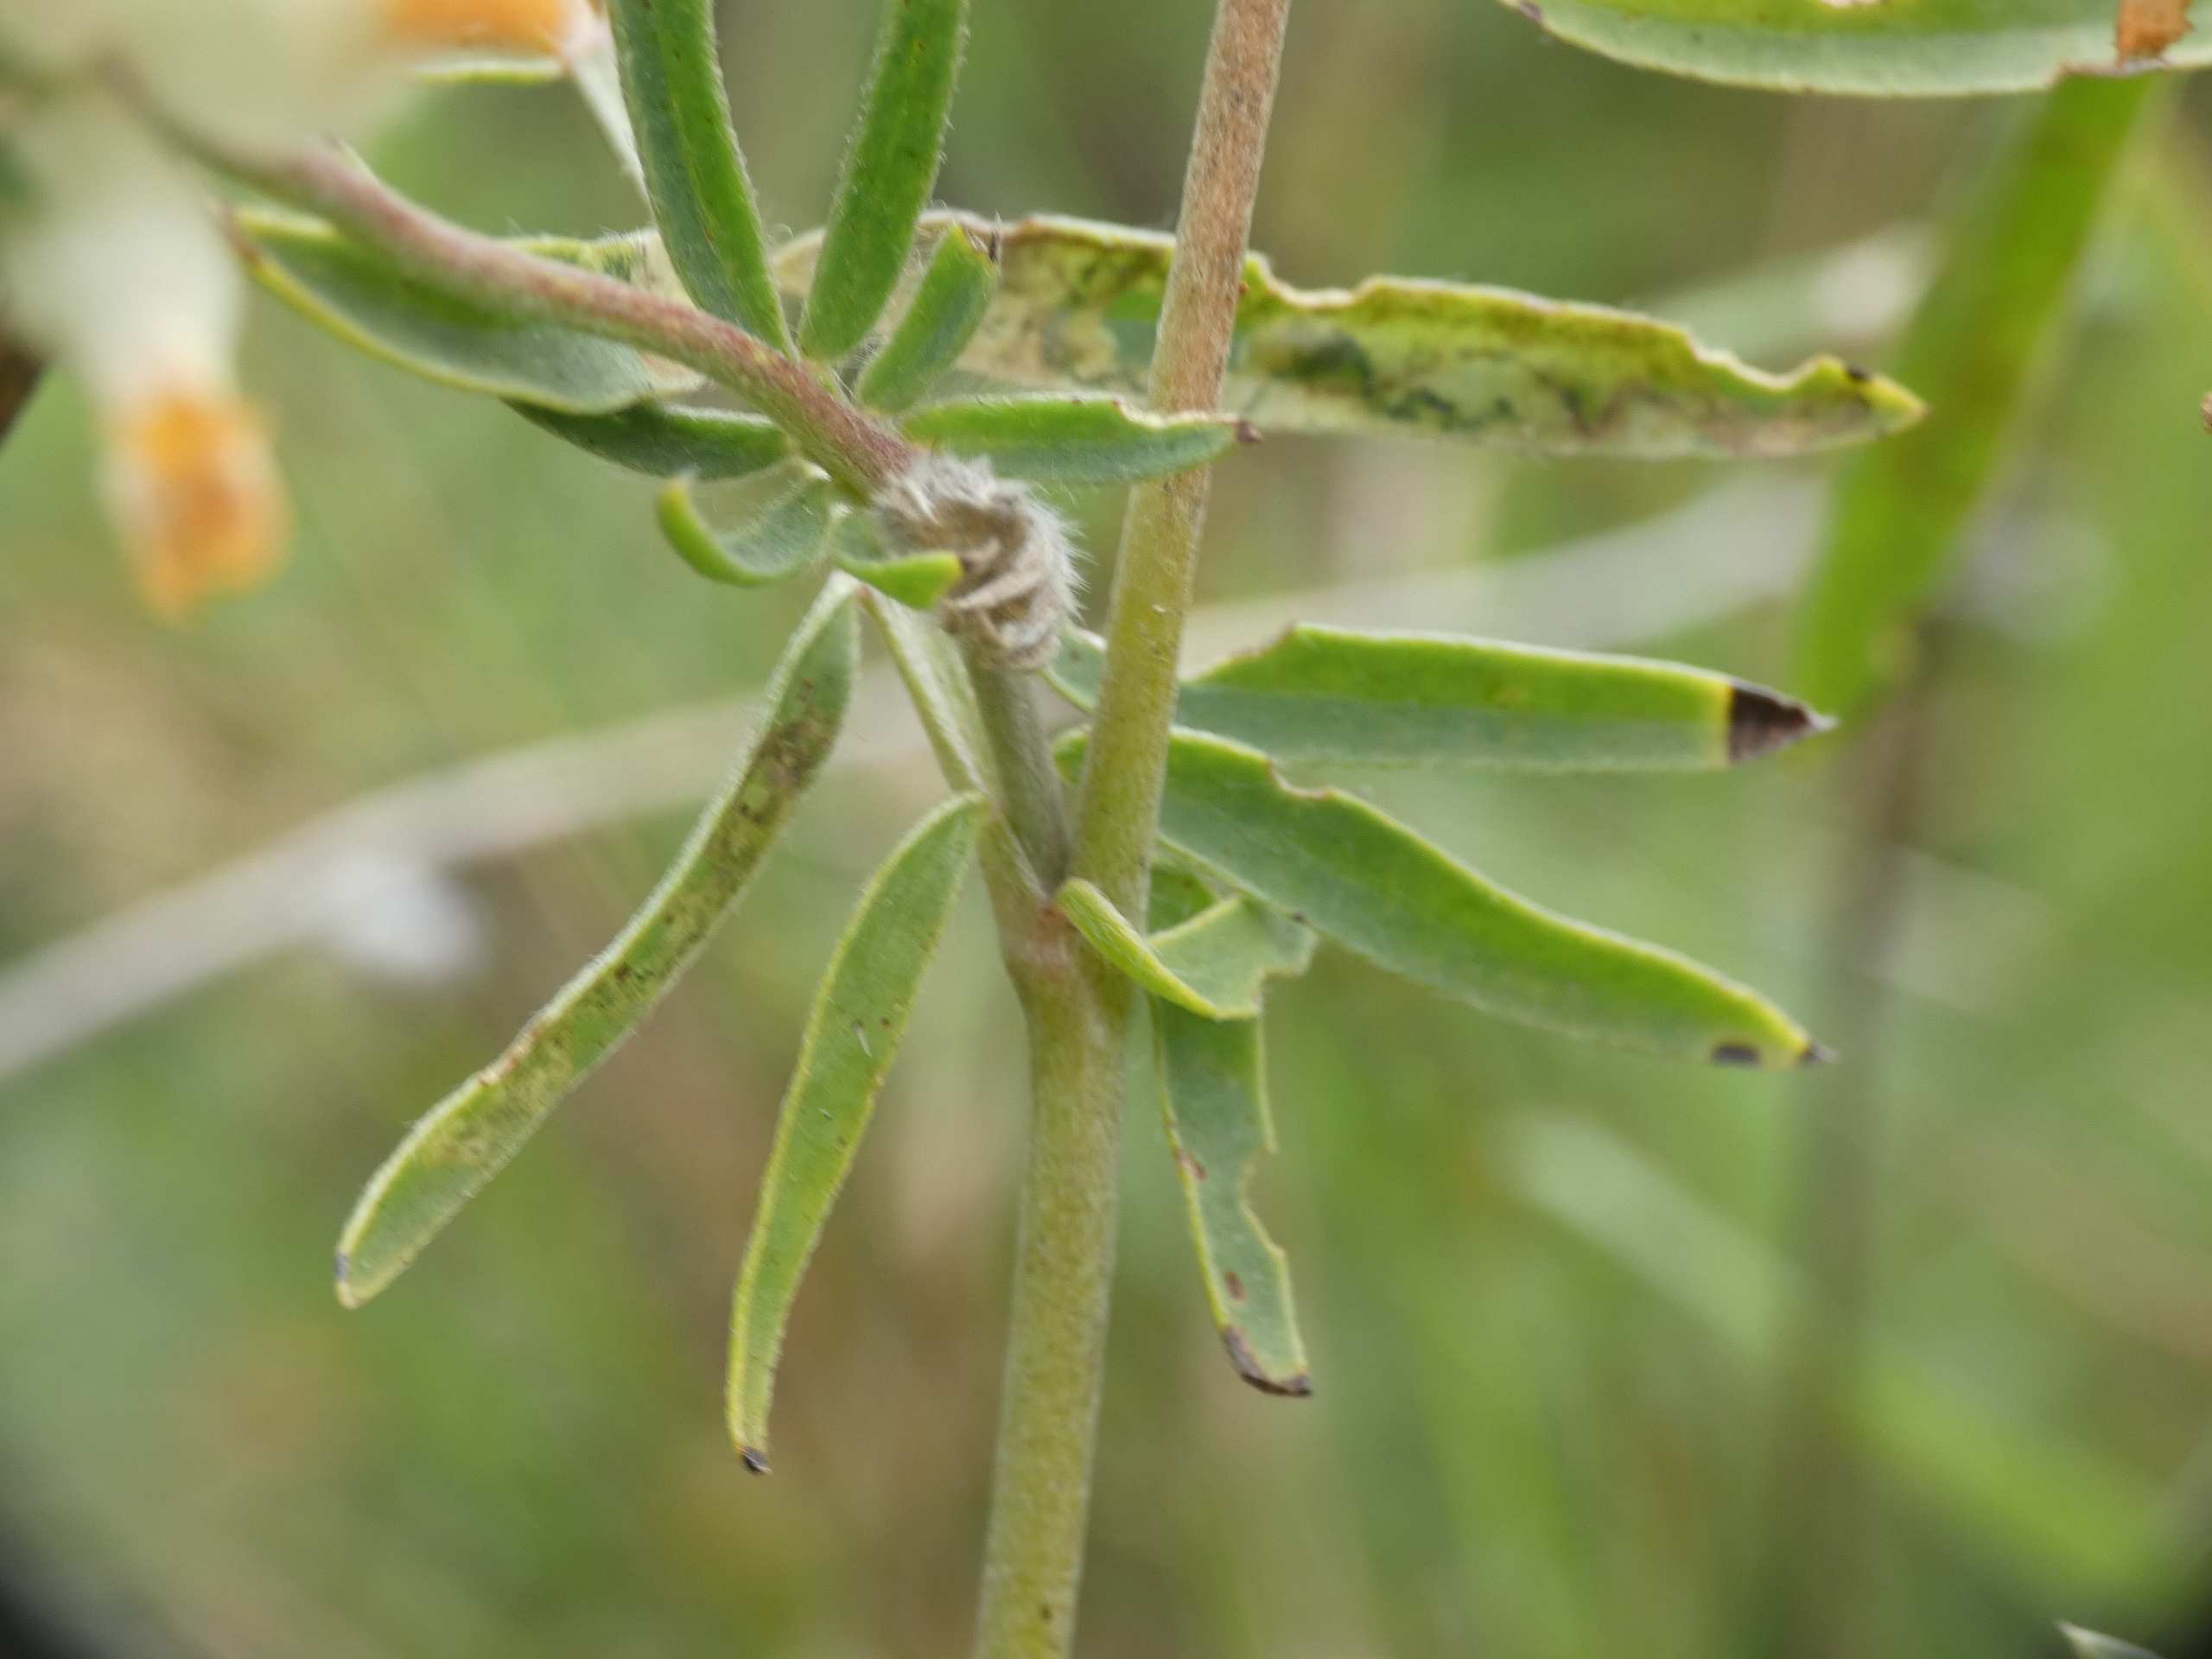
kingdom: Plantae
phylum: Tracheophyta
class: Magnoliopsida
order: Fabales
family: Fabaceae
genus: Anthyllis
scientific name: Anthyllis vulneraria
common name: Rundbælg
